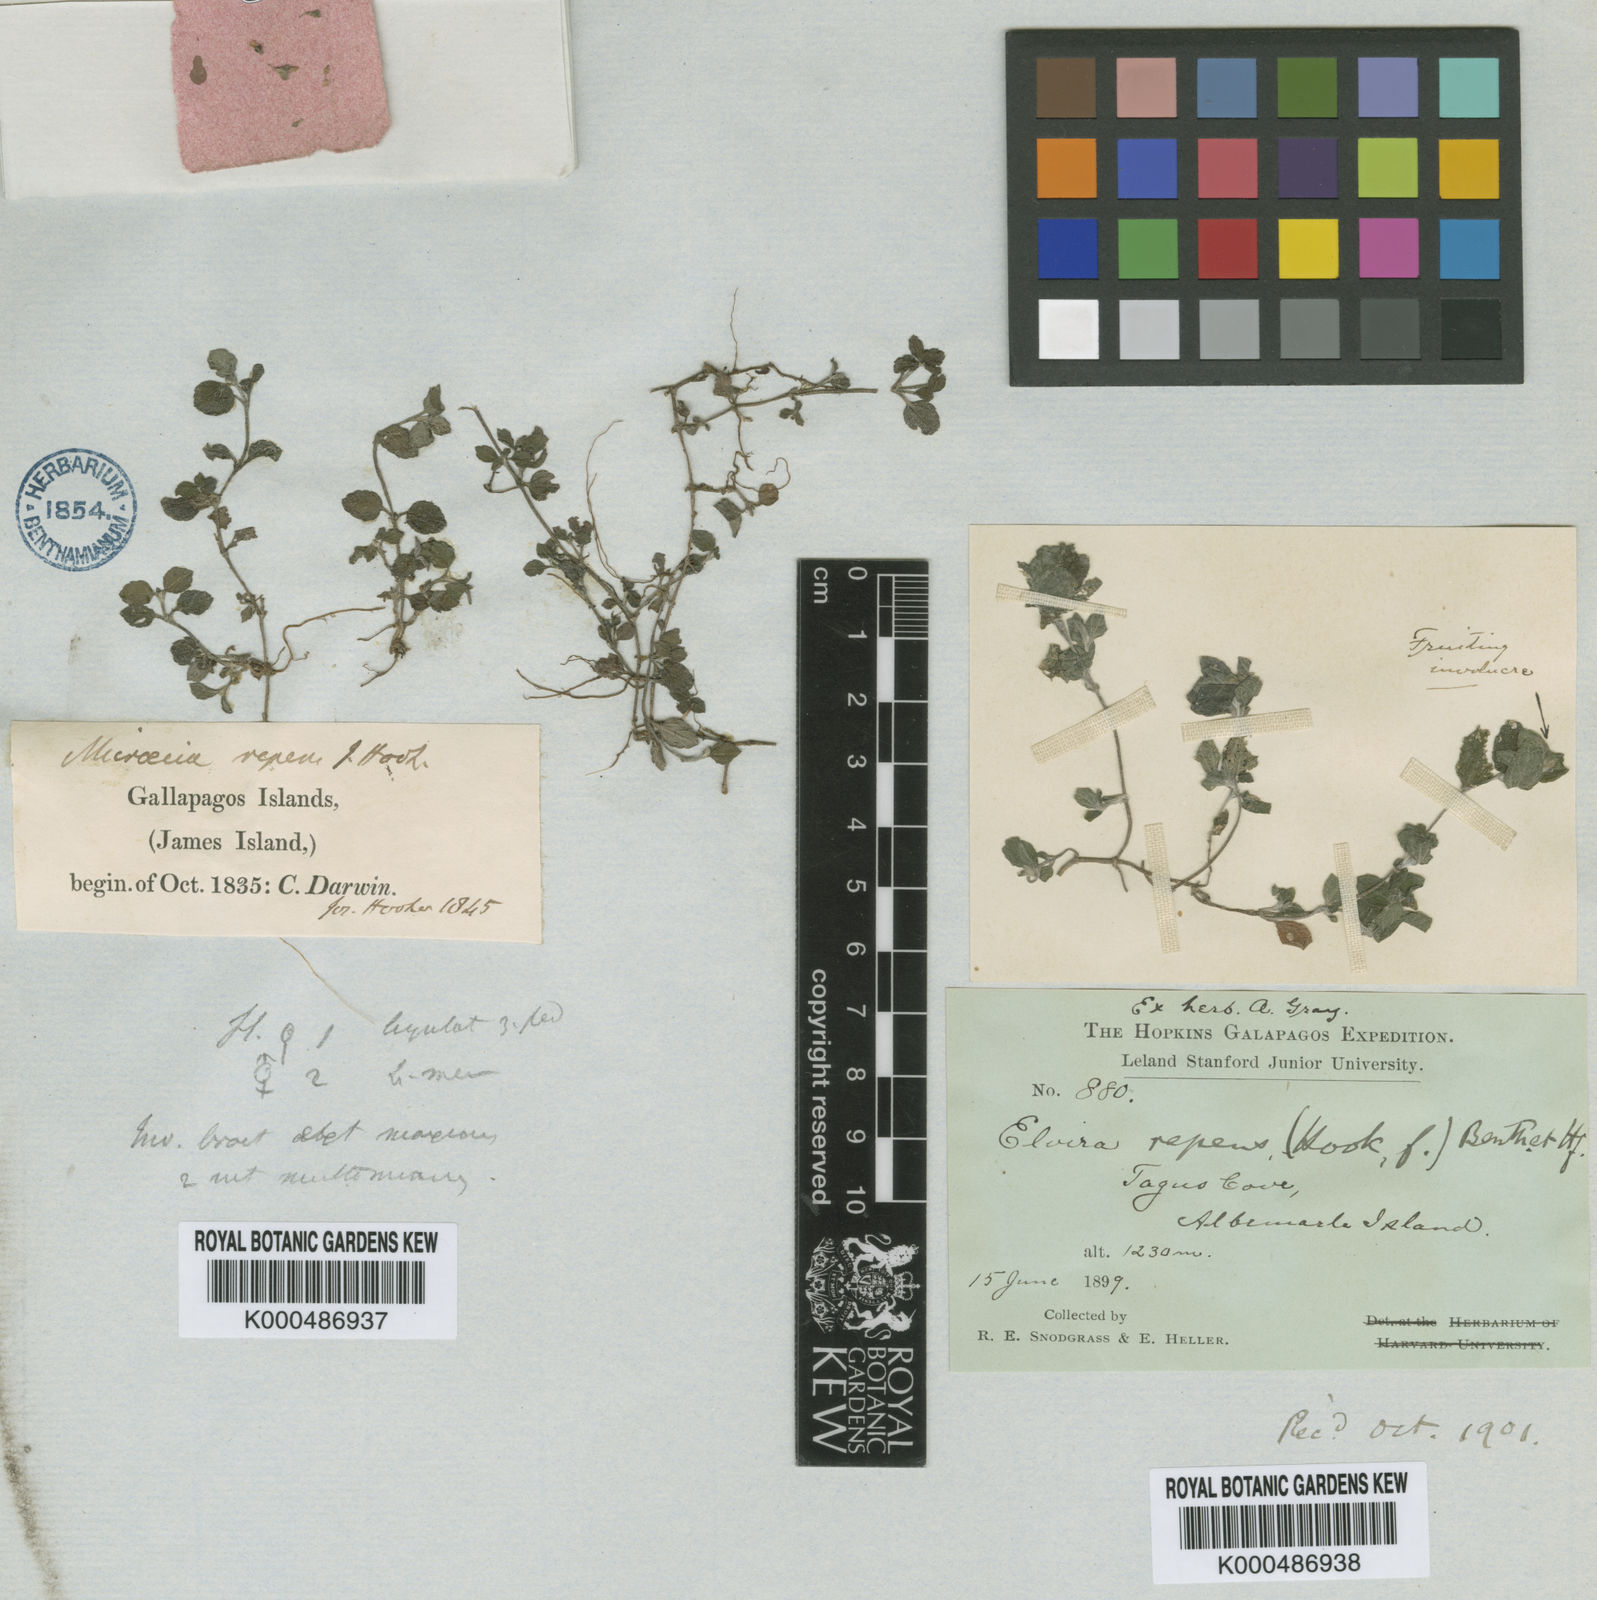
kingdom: Plantae
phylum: Tracheophyta
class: Magnoliopsida
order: Asterales
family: Asteraceae
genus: Delilia
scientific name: Delilia repens
